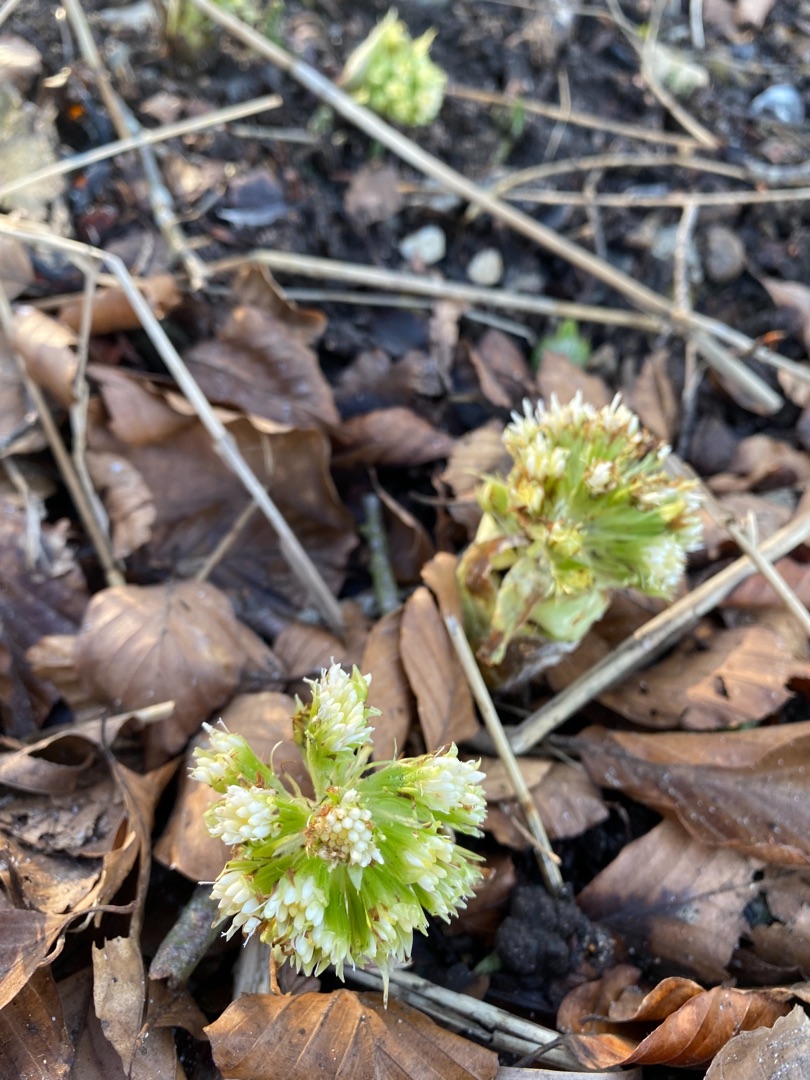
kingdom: Plantae
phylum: Tracheophyta
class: Magnoliopsida
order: Asterales
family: Asteraceae
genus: Petasites
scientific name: Petasites albus
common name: Hvid hestehov
